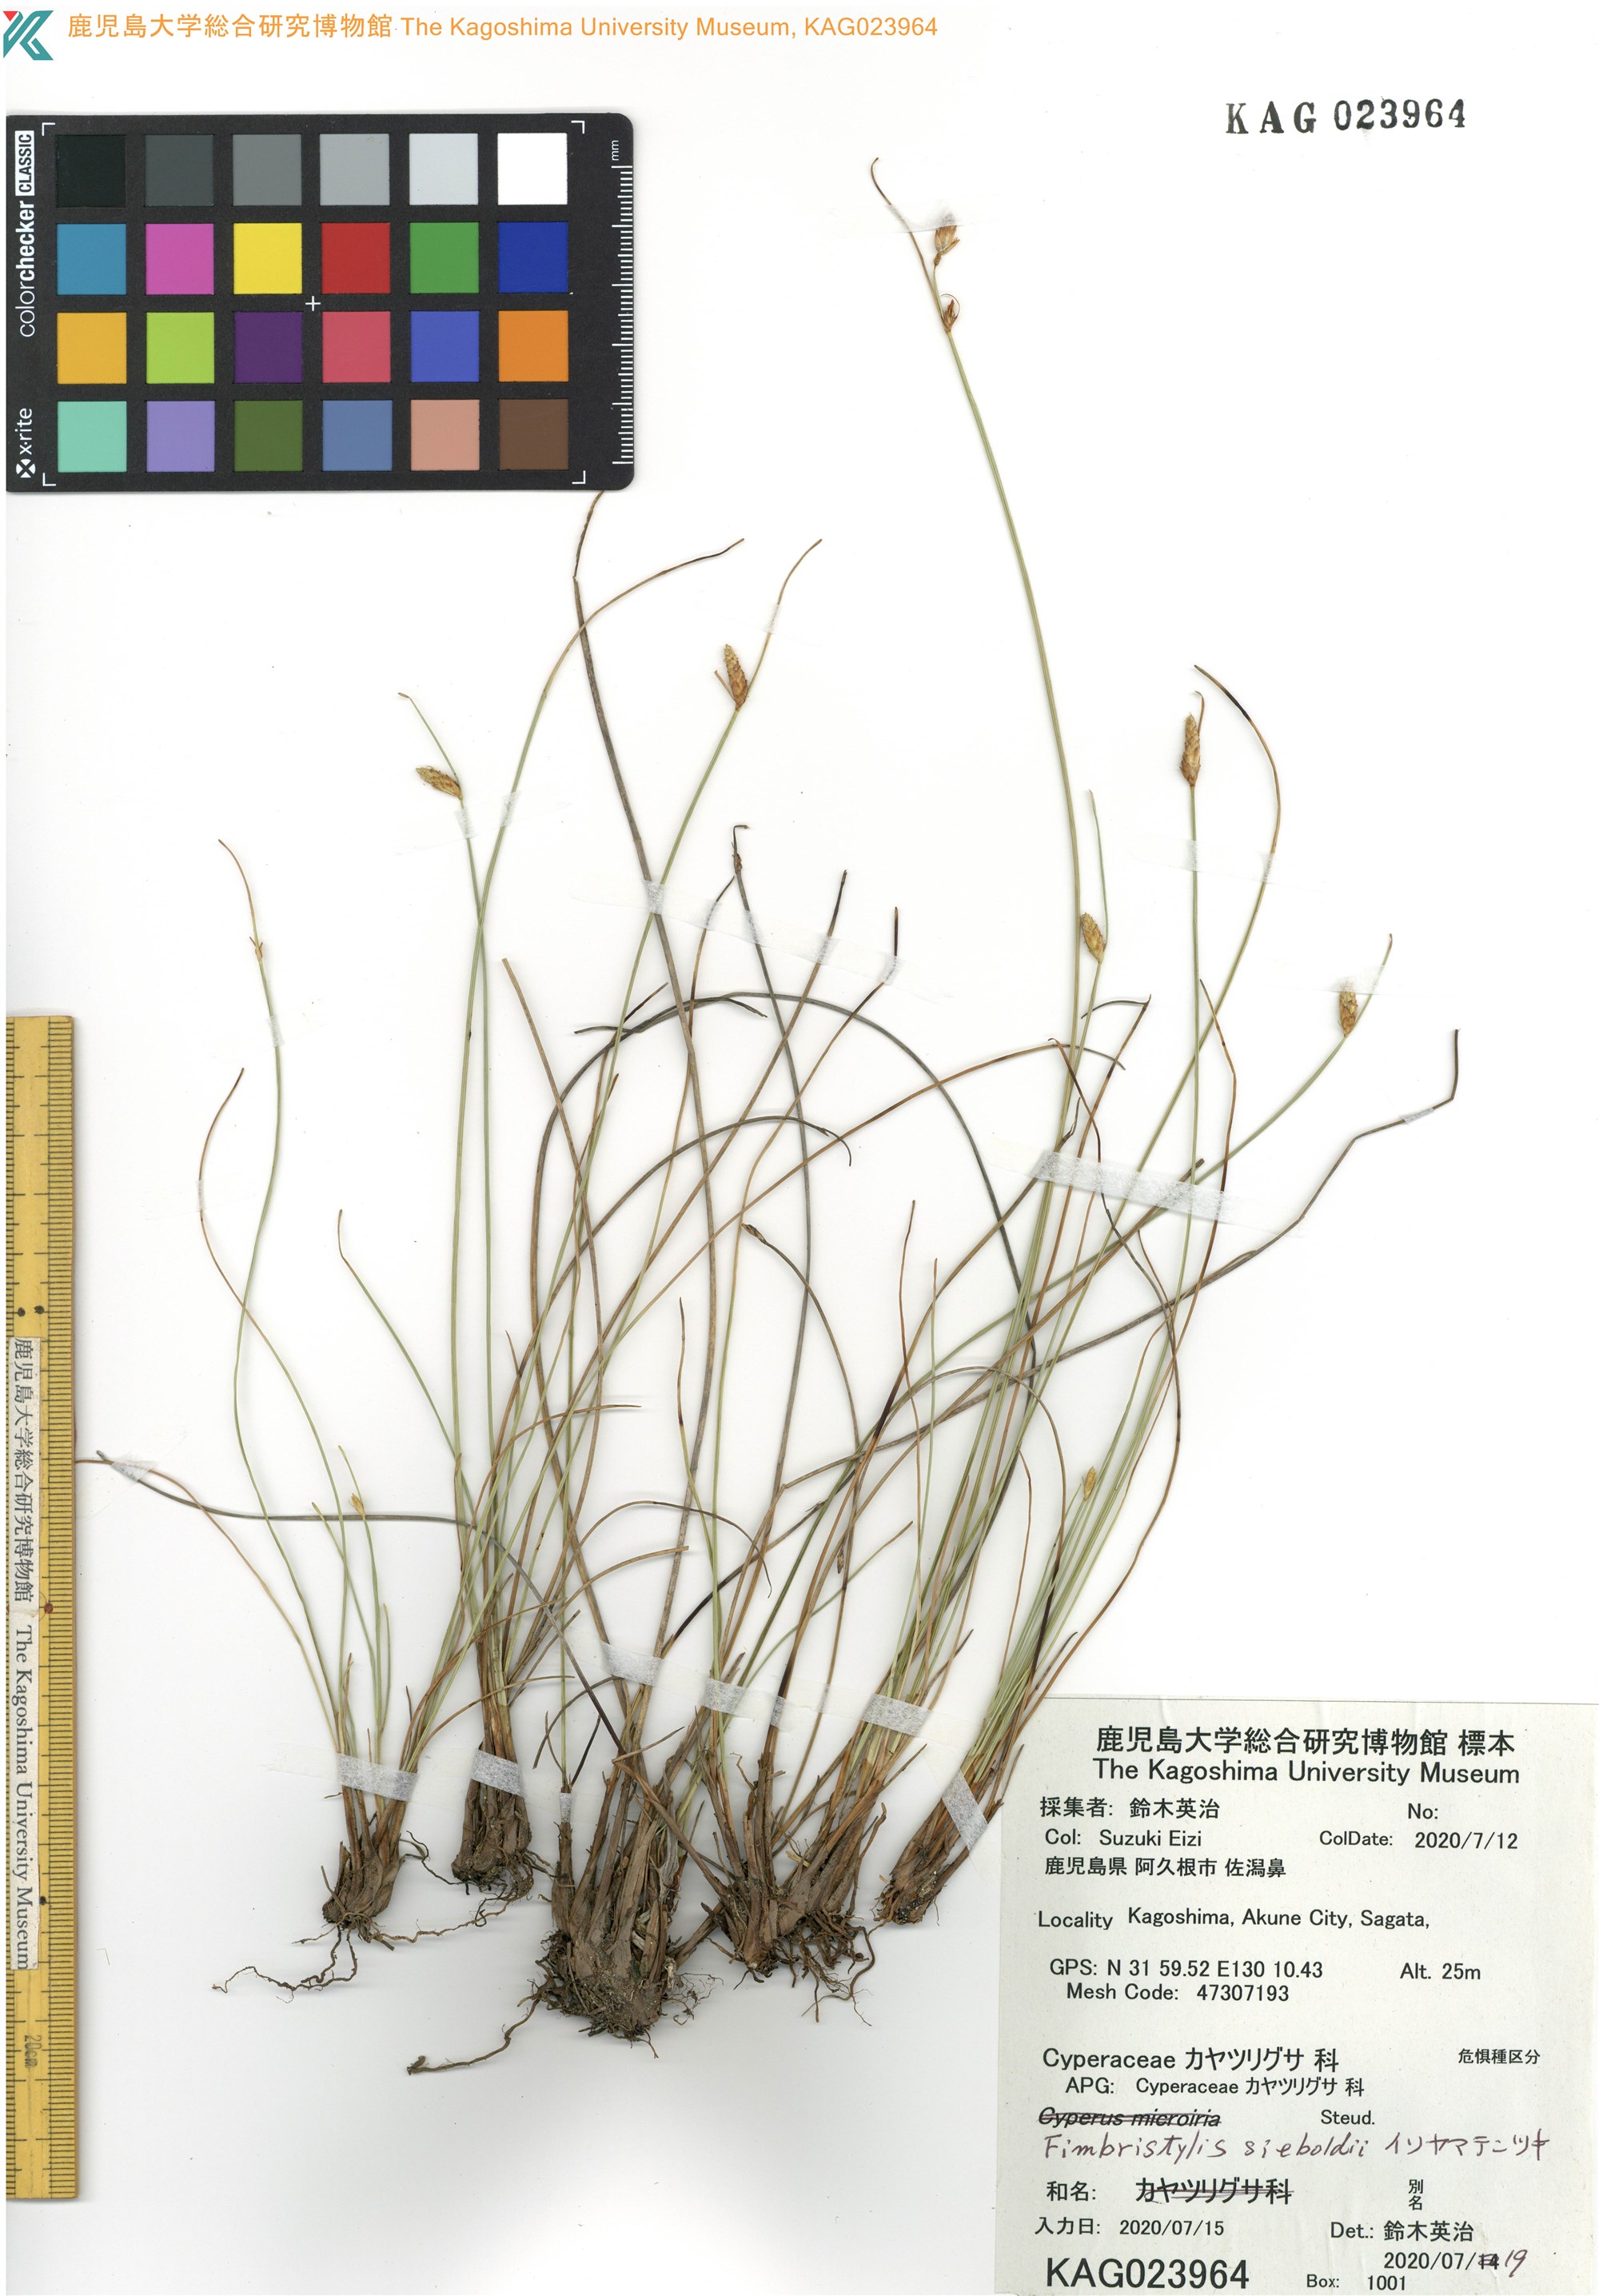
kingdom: Plantae
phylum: Tracheophyta
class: Liliopsida
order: Poales
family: Cyperaceae
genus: Fimbristylis
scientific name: Fimbristylis sieboldii
